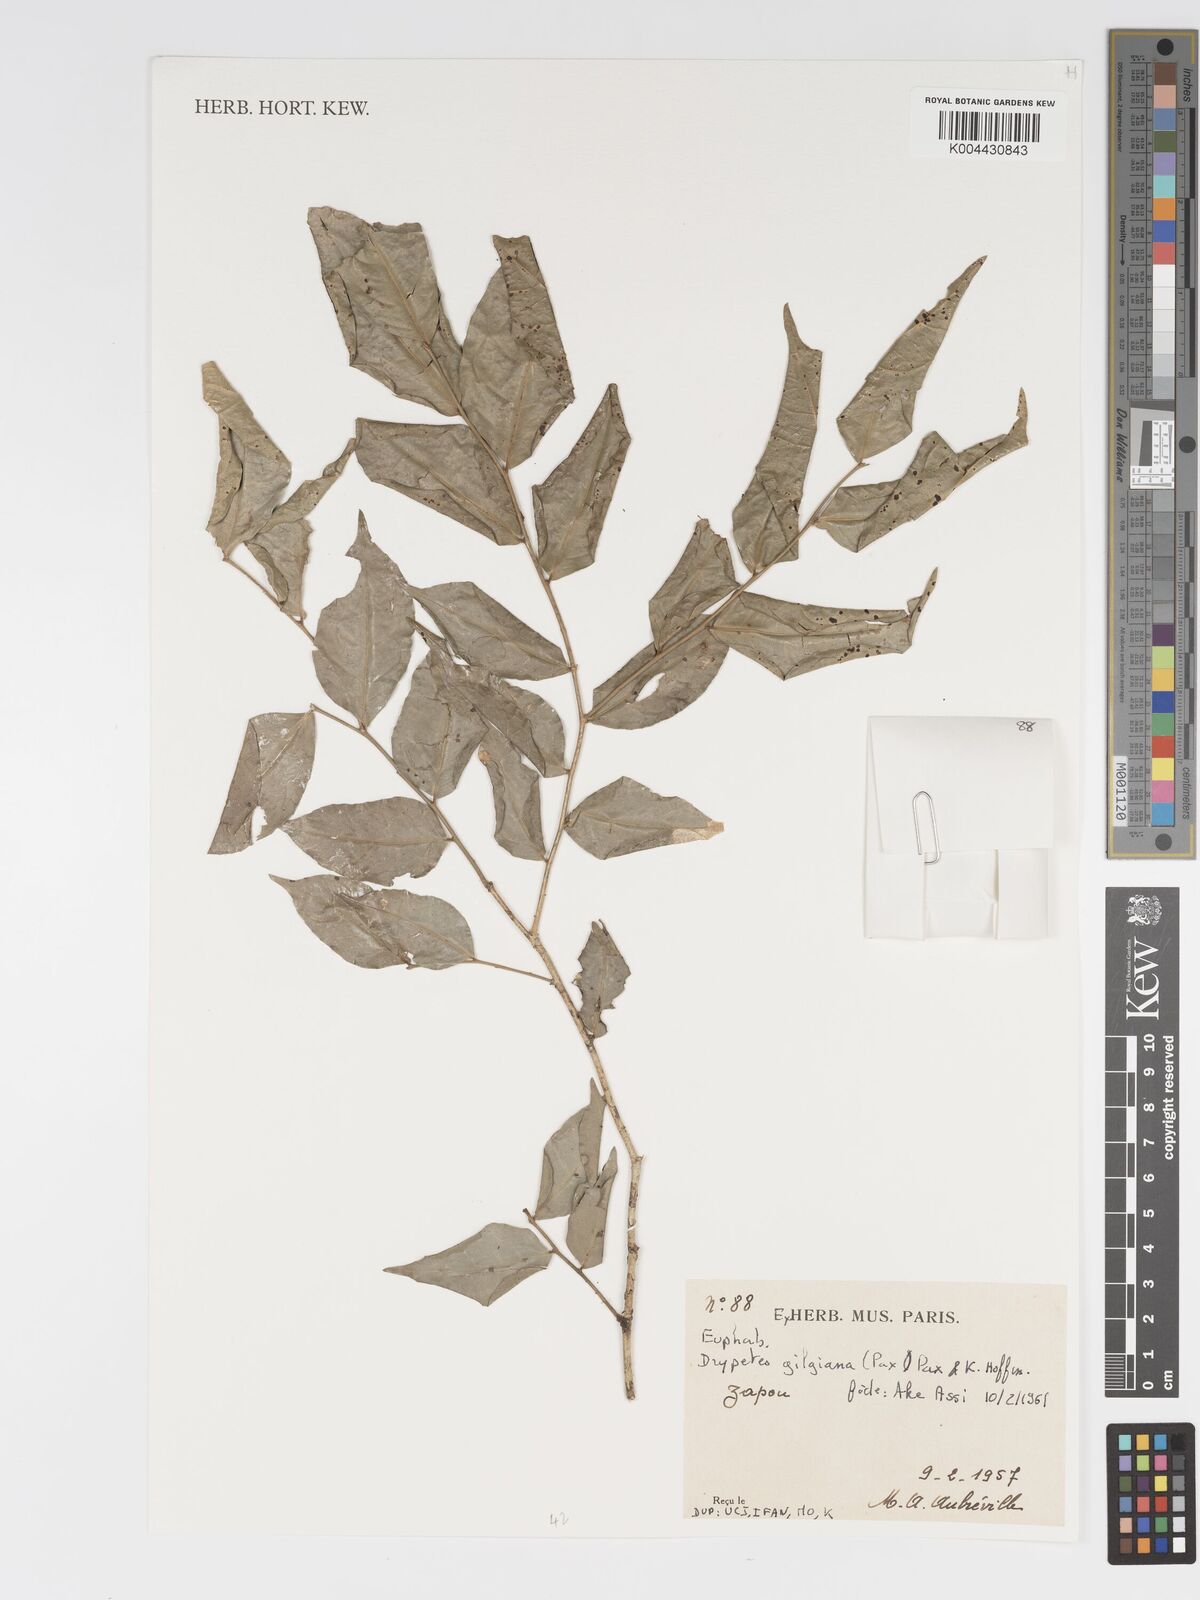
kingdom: Plantae
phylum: Tracheophyta
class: Magnoliopsida
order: Malpighiales
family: Putranjivaceae
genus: Drypetes
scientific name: Drypetes gilgiana
